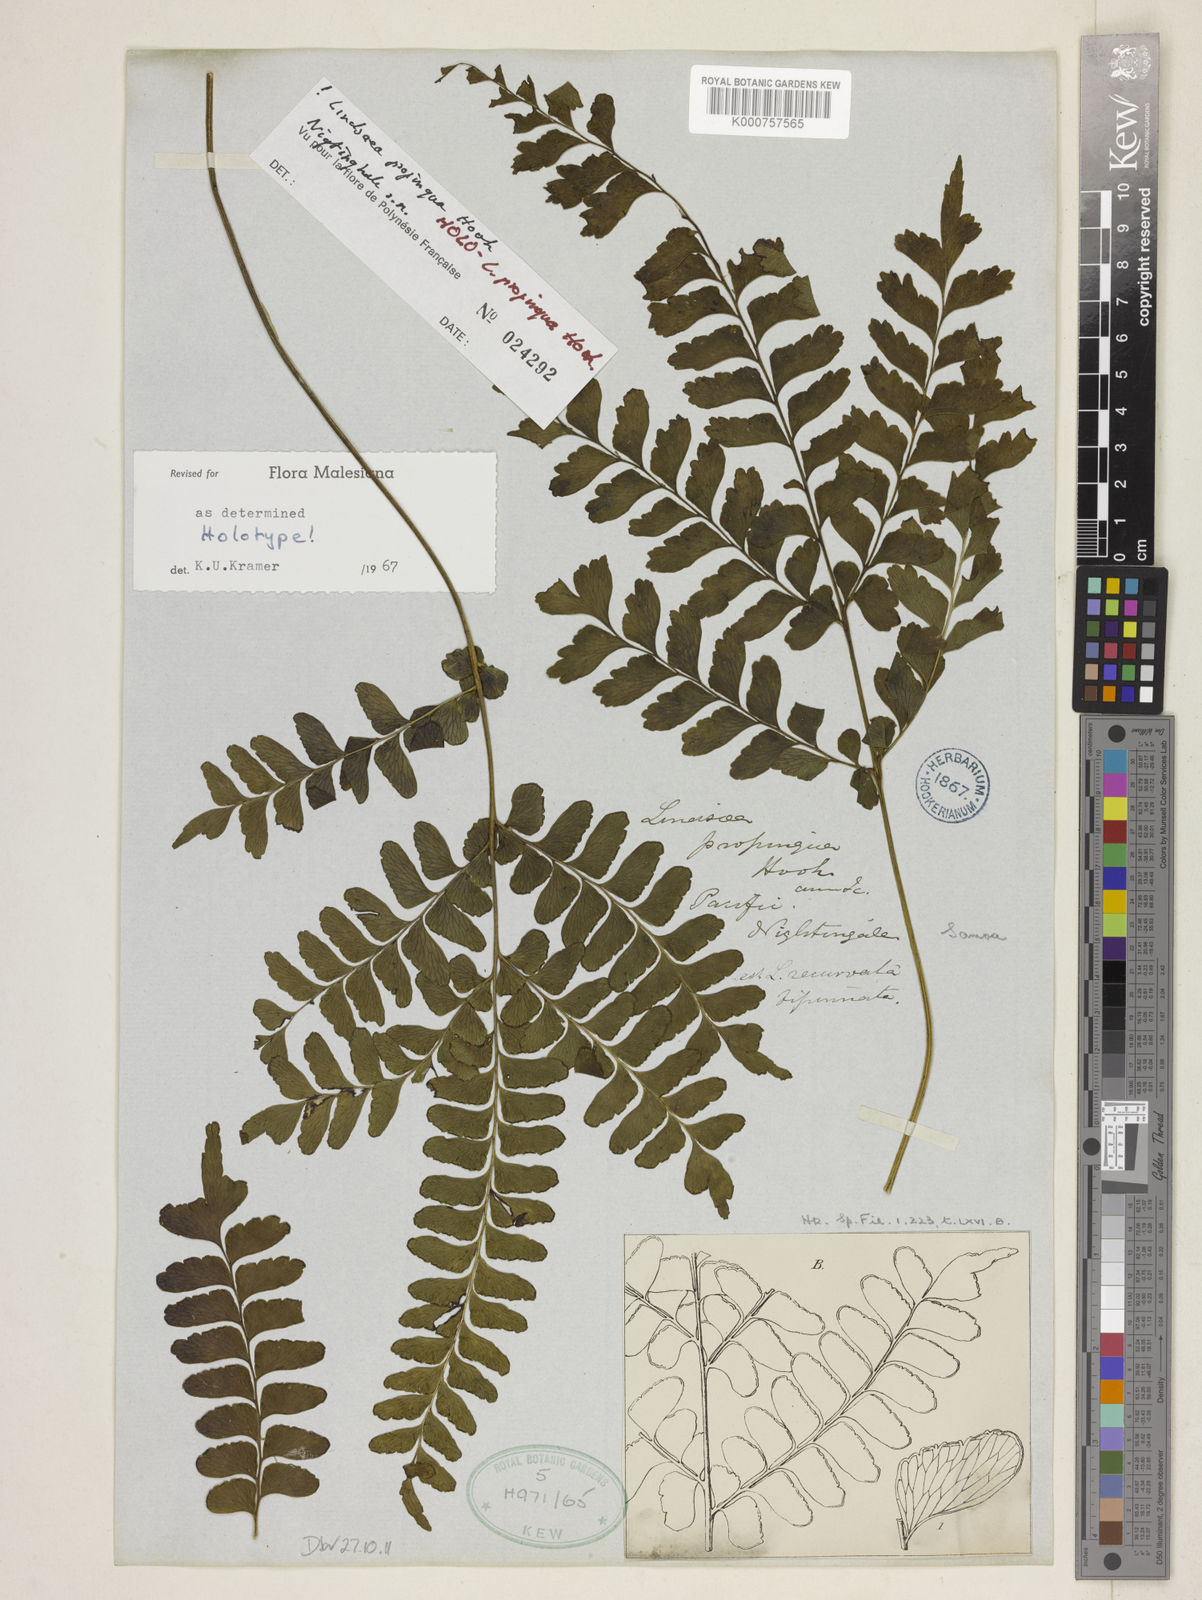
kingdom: Plantae
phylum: Tracheophyta
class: Polypodiopsida
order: Polypodiales
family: Lindsaeaceae
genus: Lindsaea
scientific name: Lindsaea cultrata
